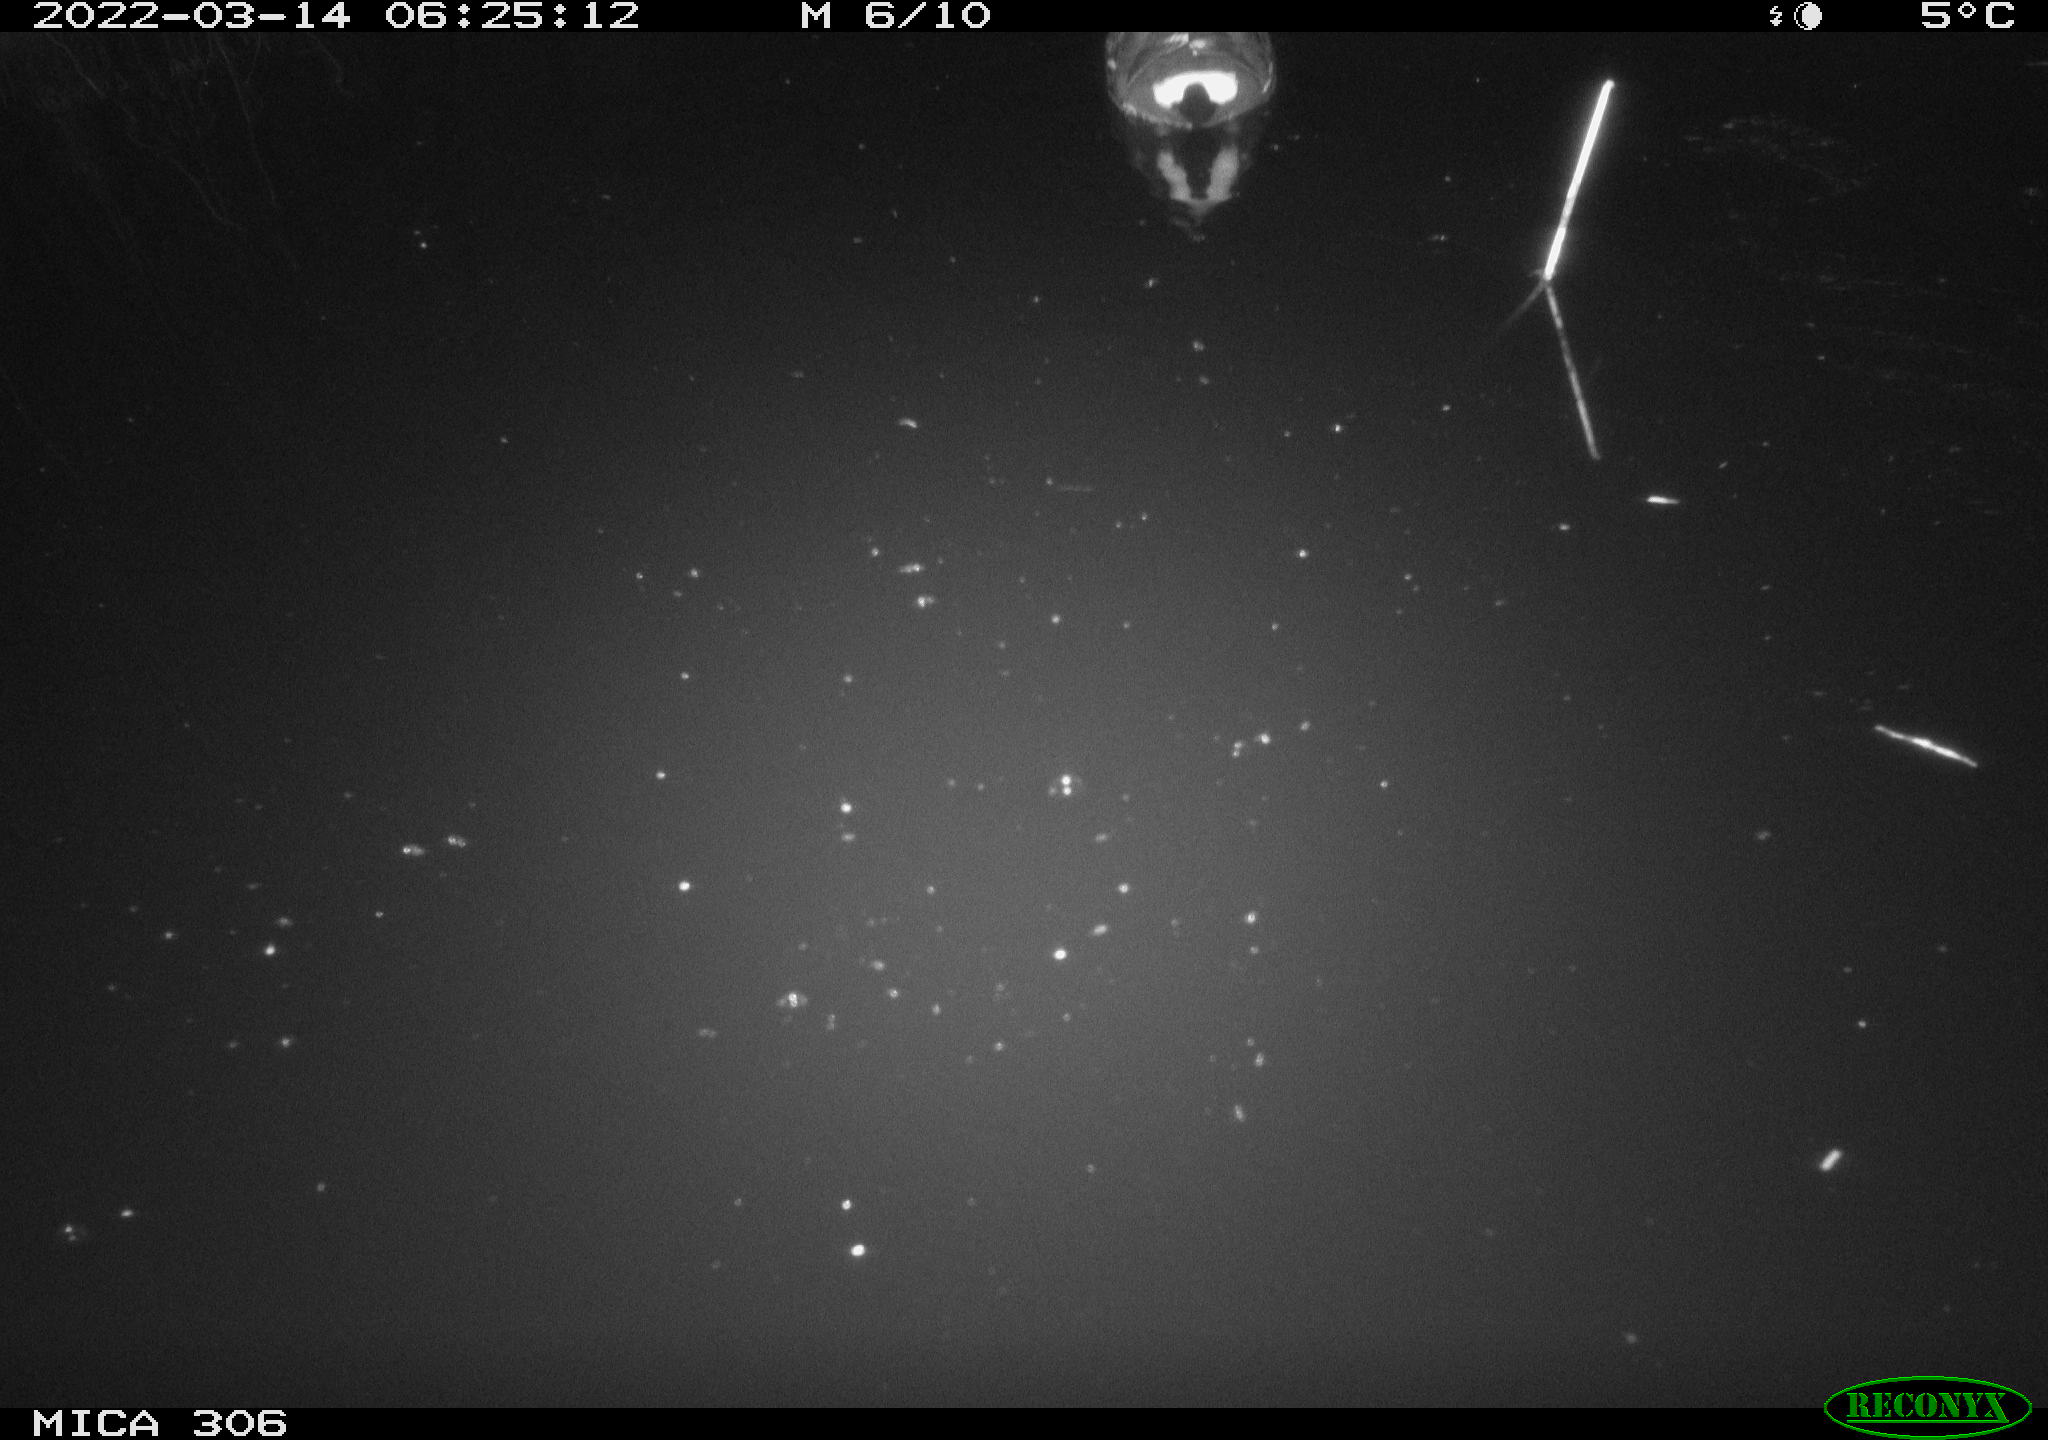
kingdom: Animalia
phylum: Chordata
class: Aves
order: Gruiformes
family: Rallidae
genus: Gallinula
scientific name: Gallinula chloropus
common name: Common moorhen
